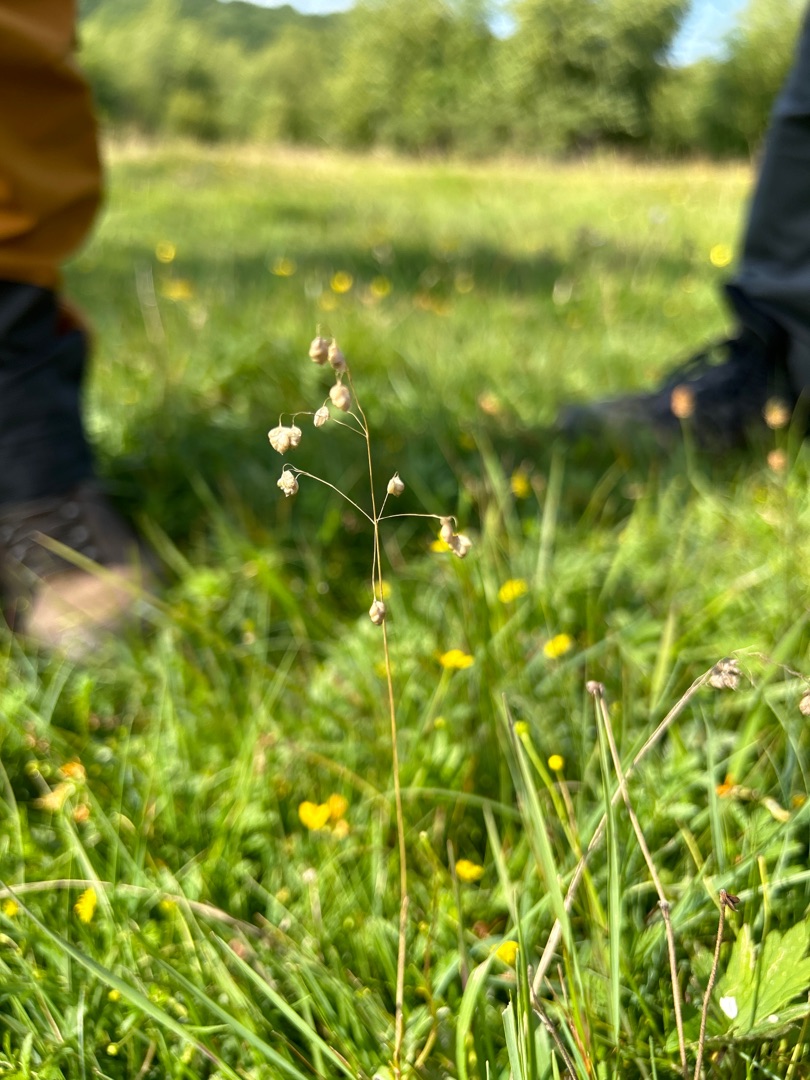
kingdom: Plantae
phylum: Tracheophyta
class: Liliopsida
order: Poales
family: Poaceae
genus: Briza
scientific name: Briza media
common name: Hjertegræs
